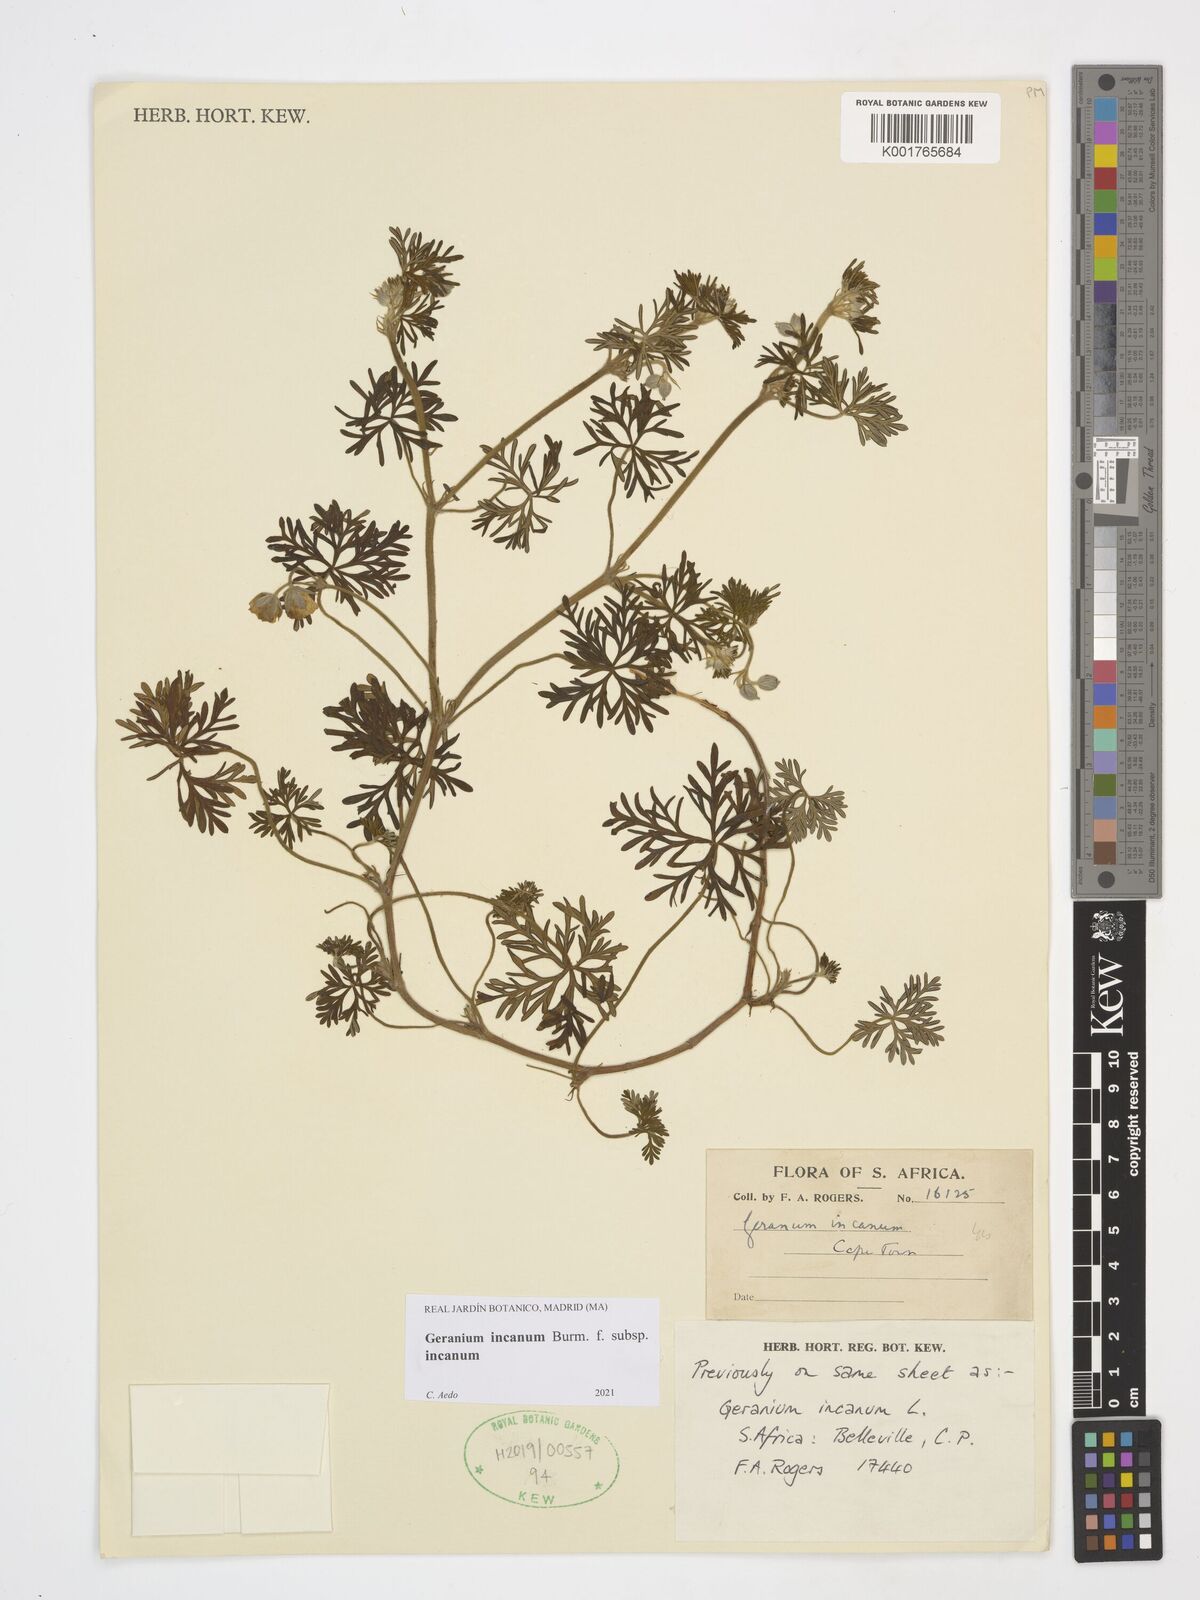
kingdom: Plantae
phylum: Tracheophyta
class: Magnoliopsida
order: Geraniales
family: Geraniaceae
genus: Geranium
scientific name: Geranium incanum
